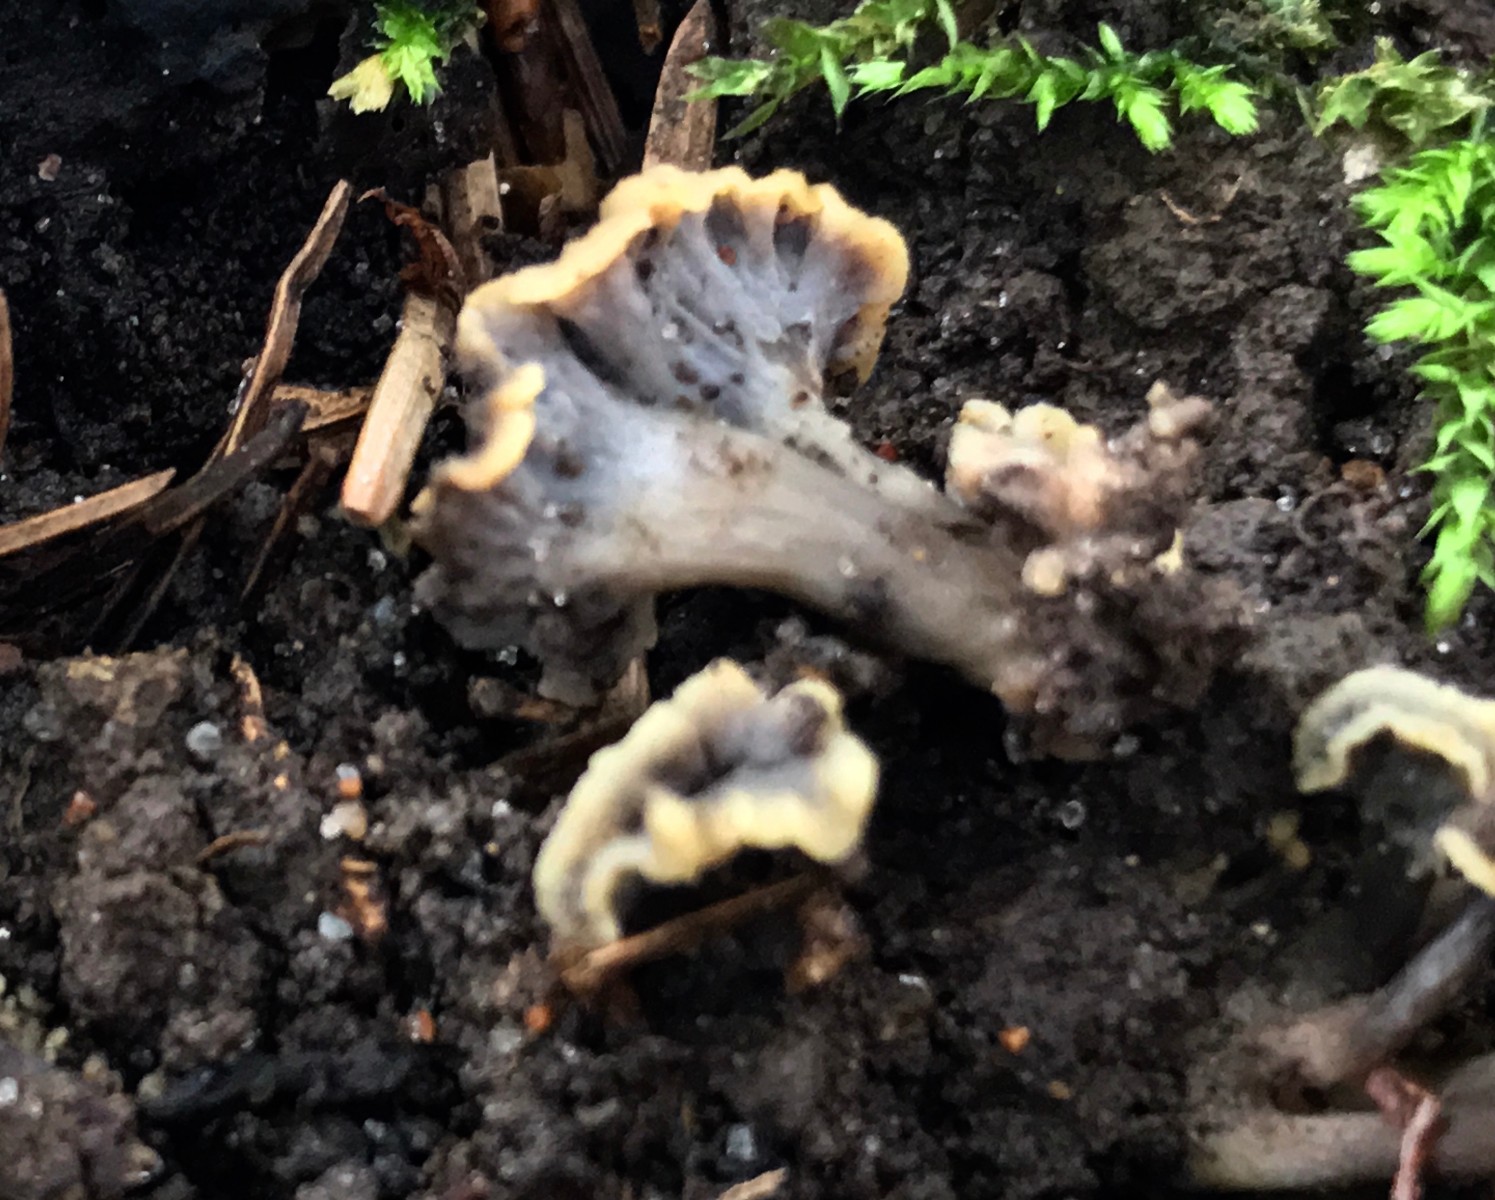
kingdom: Fungi
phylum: Basidiomycota
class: Agaricomycetes
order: Cantharellales
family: Hydnaceae
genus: Craterellus
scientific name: Craterellus undulatus
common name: liden kantarel
